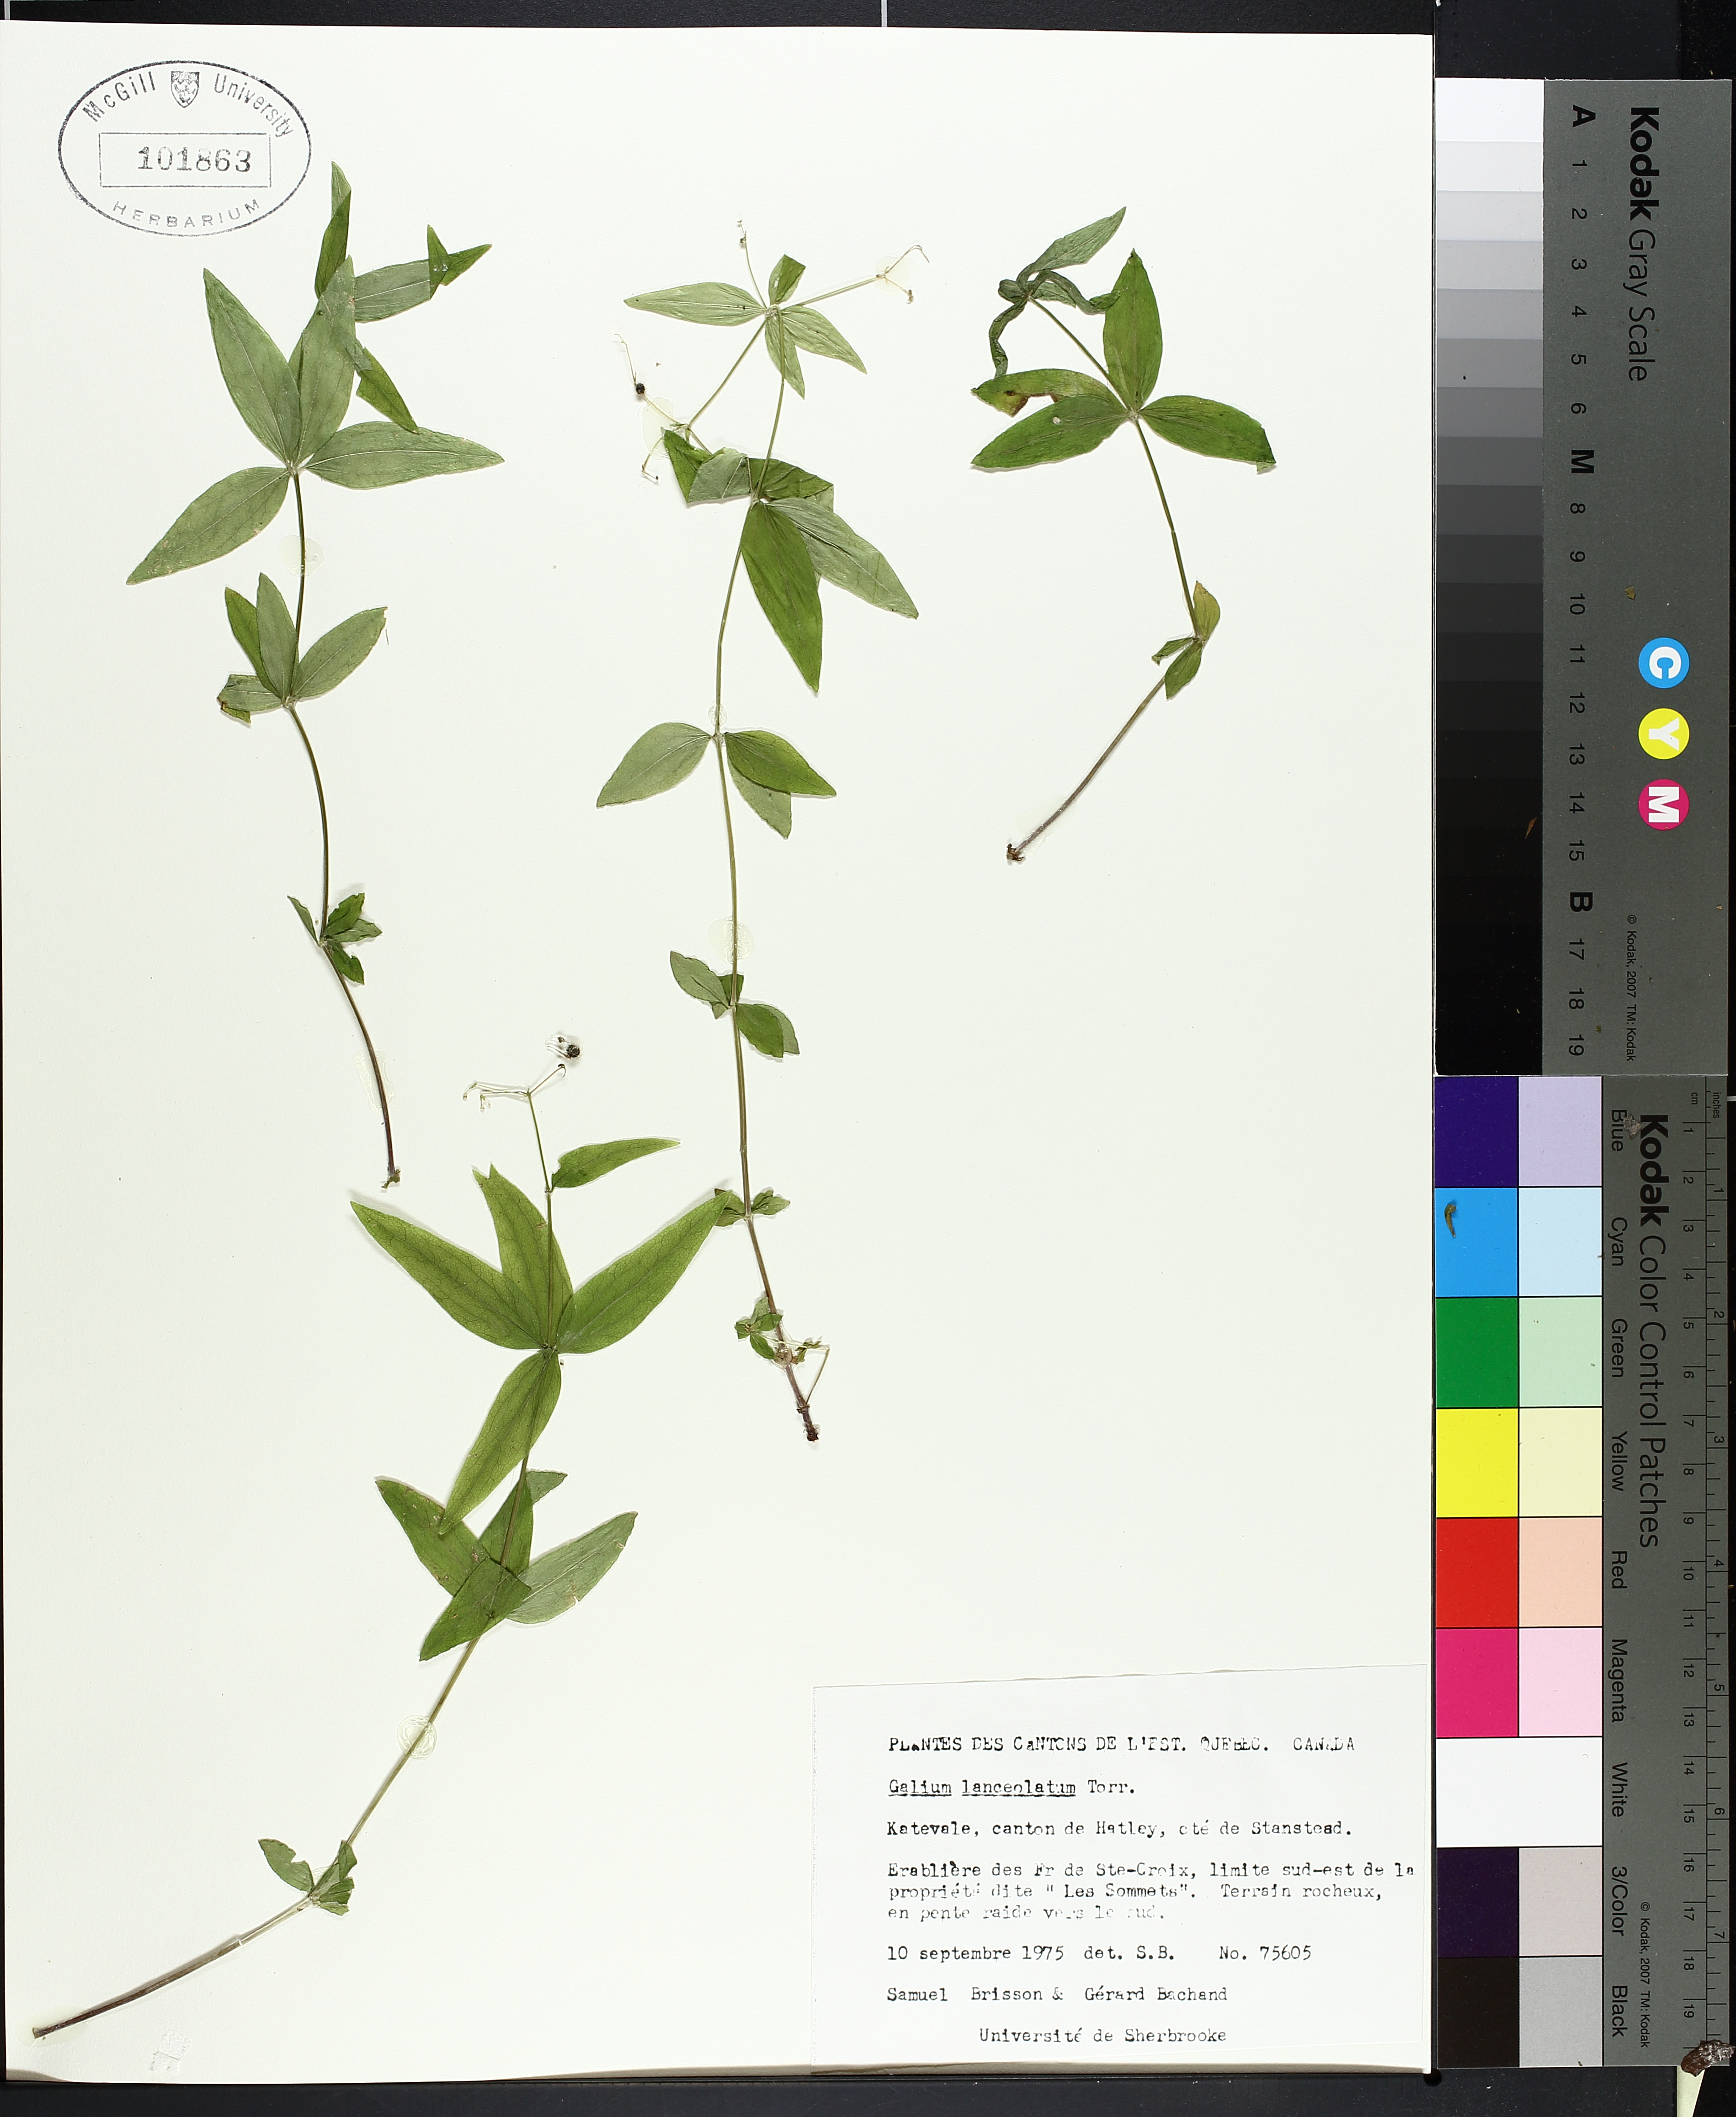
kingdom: Plantae
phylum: Tracheophyta
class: Magnoliopsida
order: Lamiales
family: Lamiaceae
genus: Pycnanthemum
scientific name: Pycnanthemum virginianum
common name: Virginia mountain-mint
